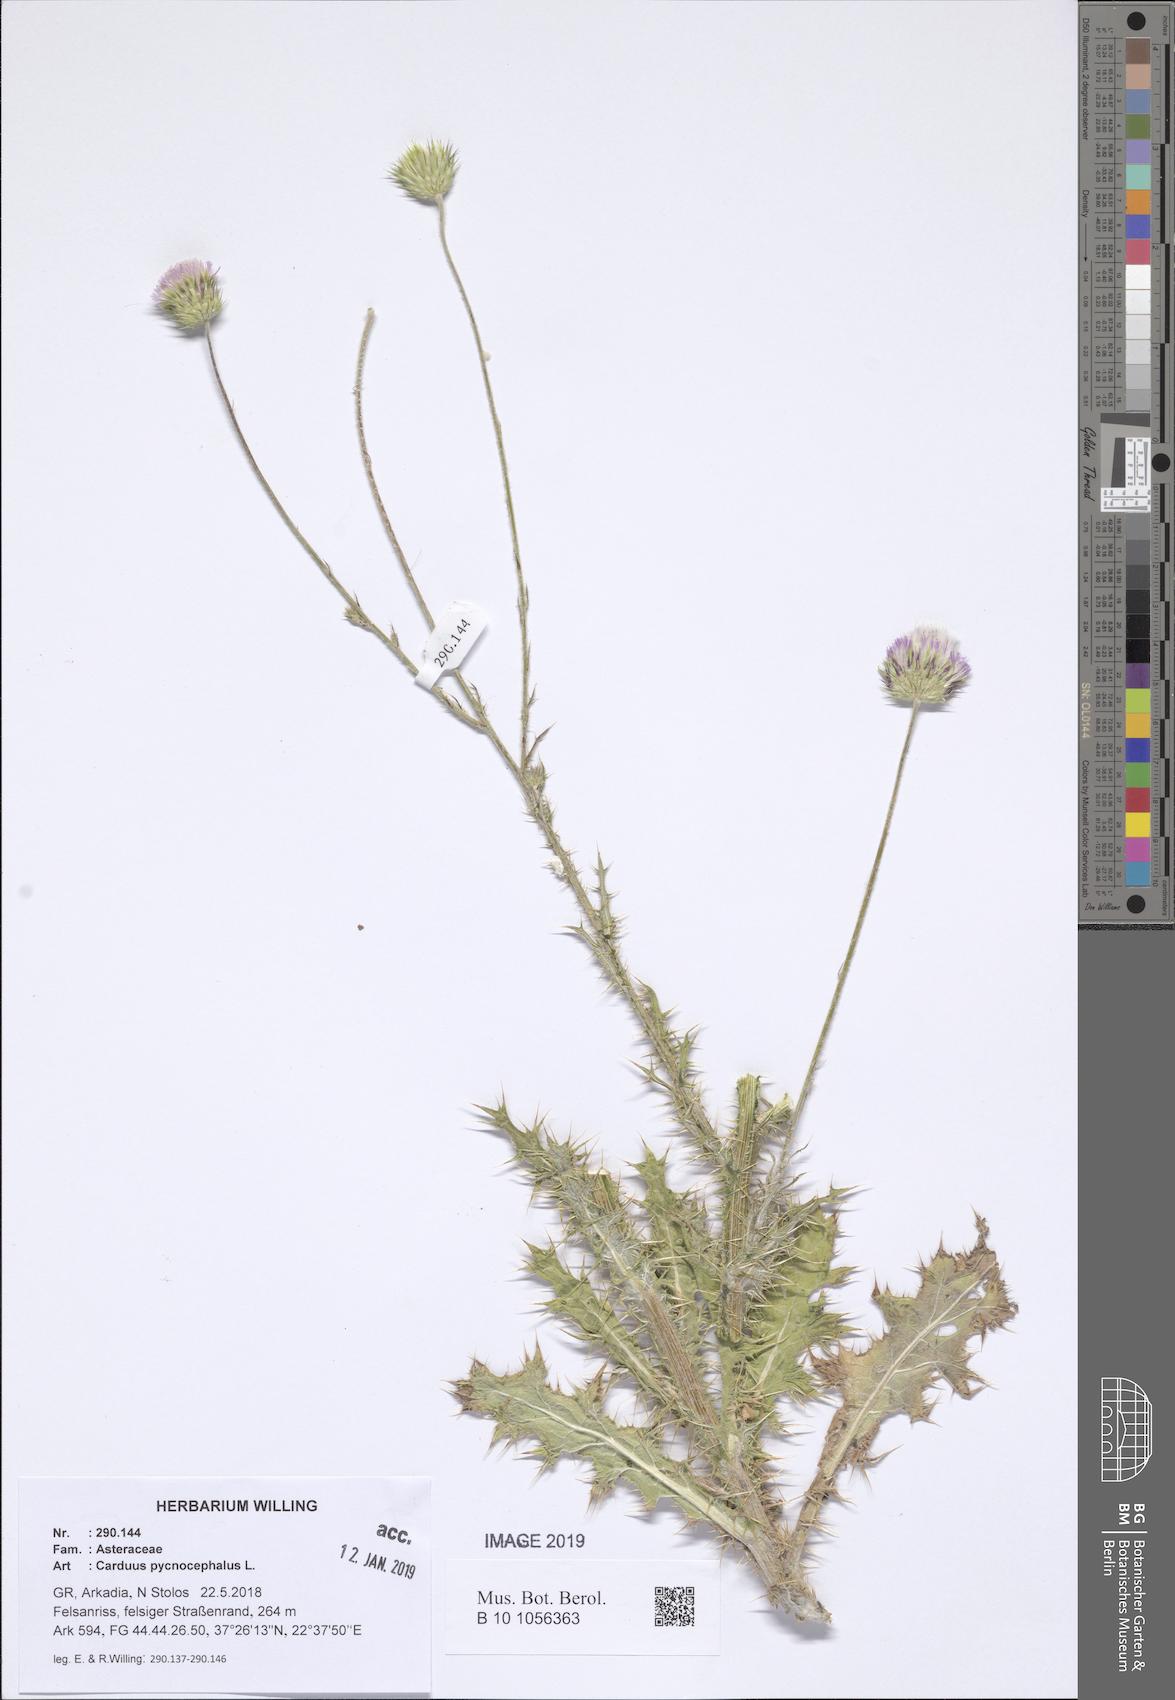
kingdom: Plantae
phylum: Tracheophyta
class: Magnoliopsida
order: Asterales
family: Asteraceae
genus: Carduus
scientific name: Carduus pycnocephalus
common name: Plymouth thistle
